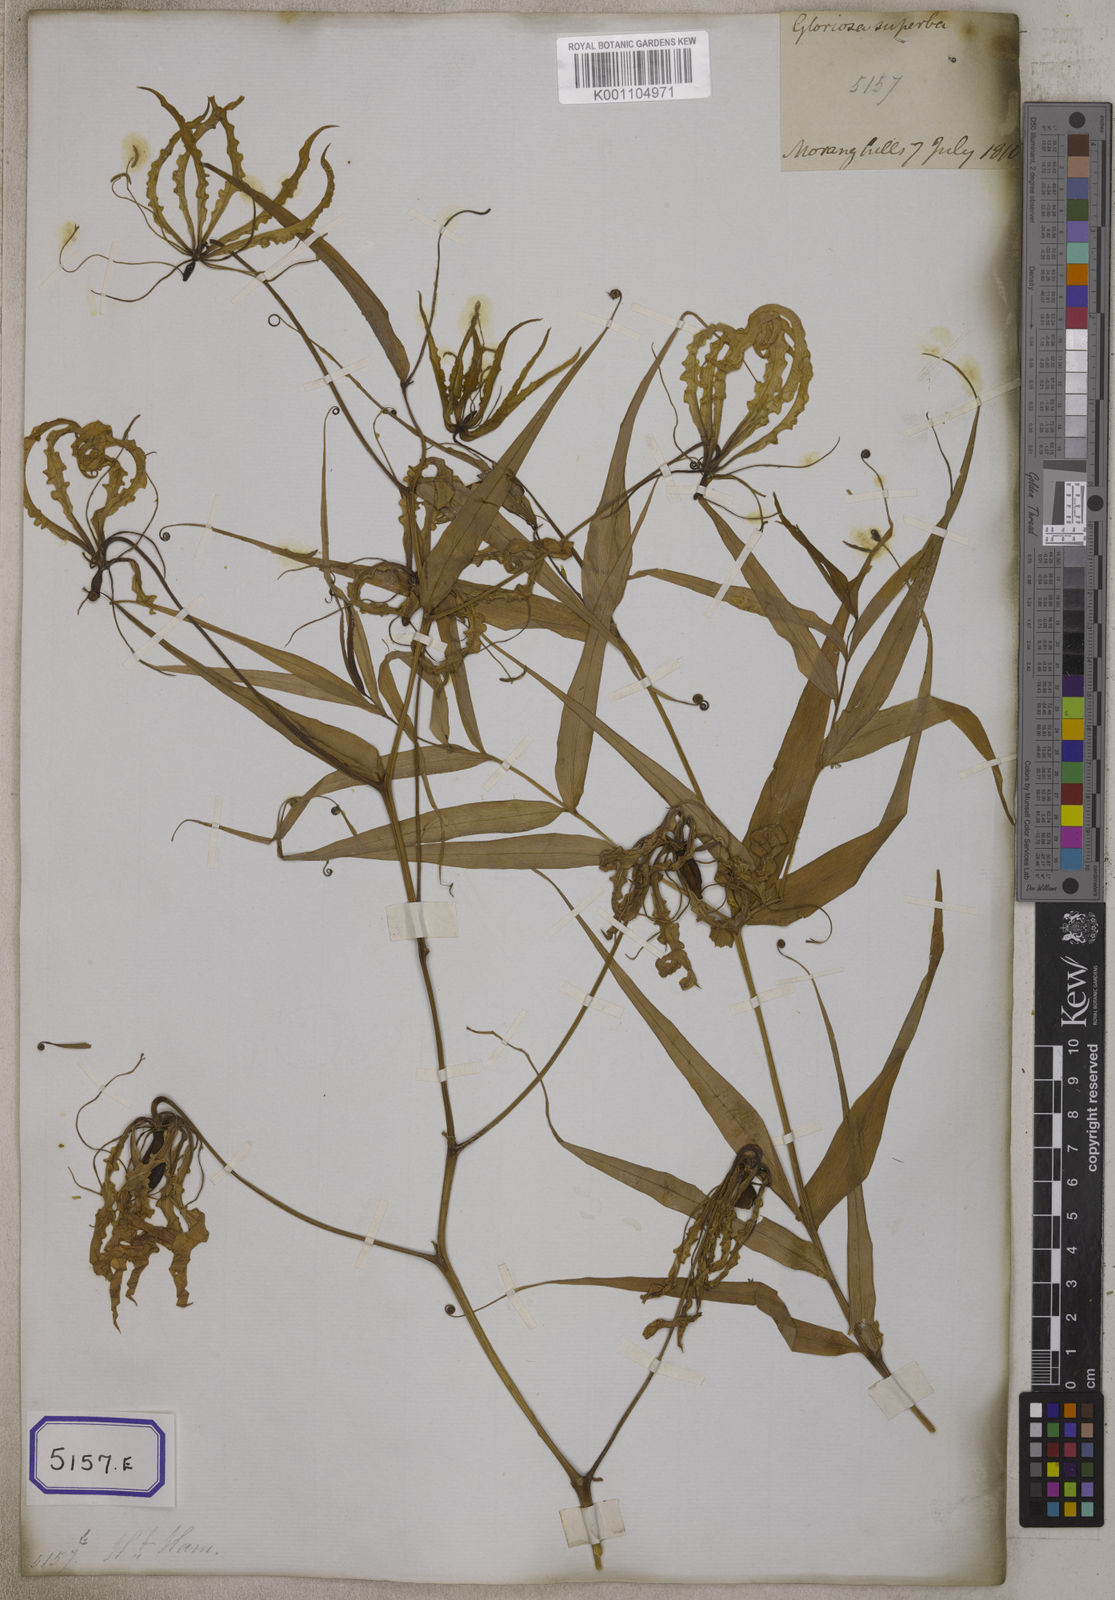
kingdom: Plantae
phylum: Tracheophyta
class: Liliopsida
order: Liliales
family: Colchicaceae
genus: Gloriosa
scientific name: Gloriosa superba
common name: Flame lily
